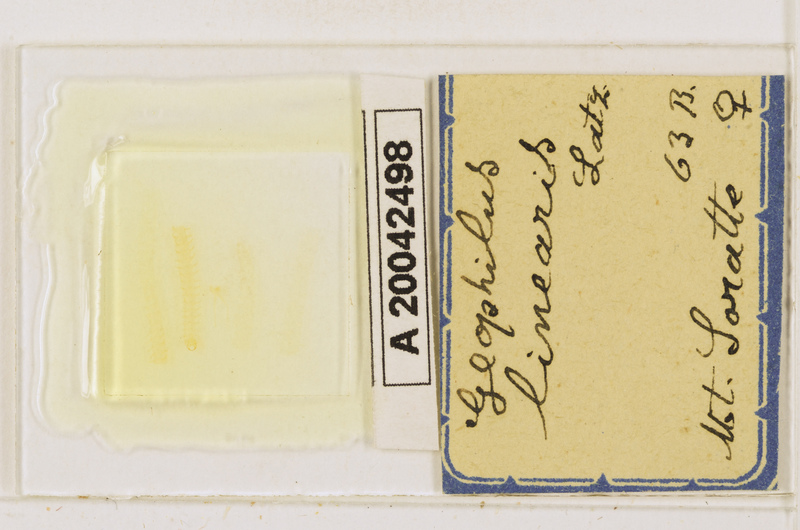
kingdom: Animalia
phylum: Arthropoda
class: Chilopoda
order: Geophilomorpha
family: Geophilidae
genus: Stenotaenia
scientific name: Stenotaenia linearis
